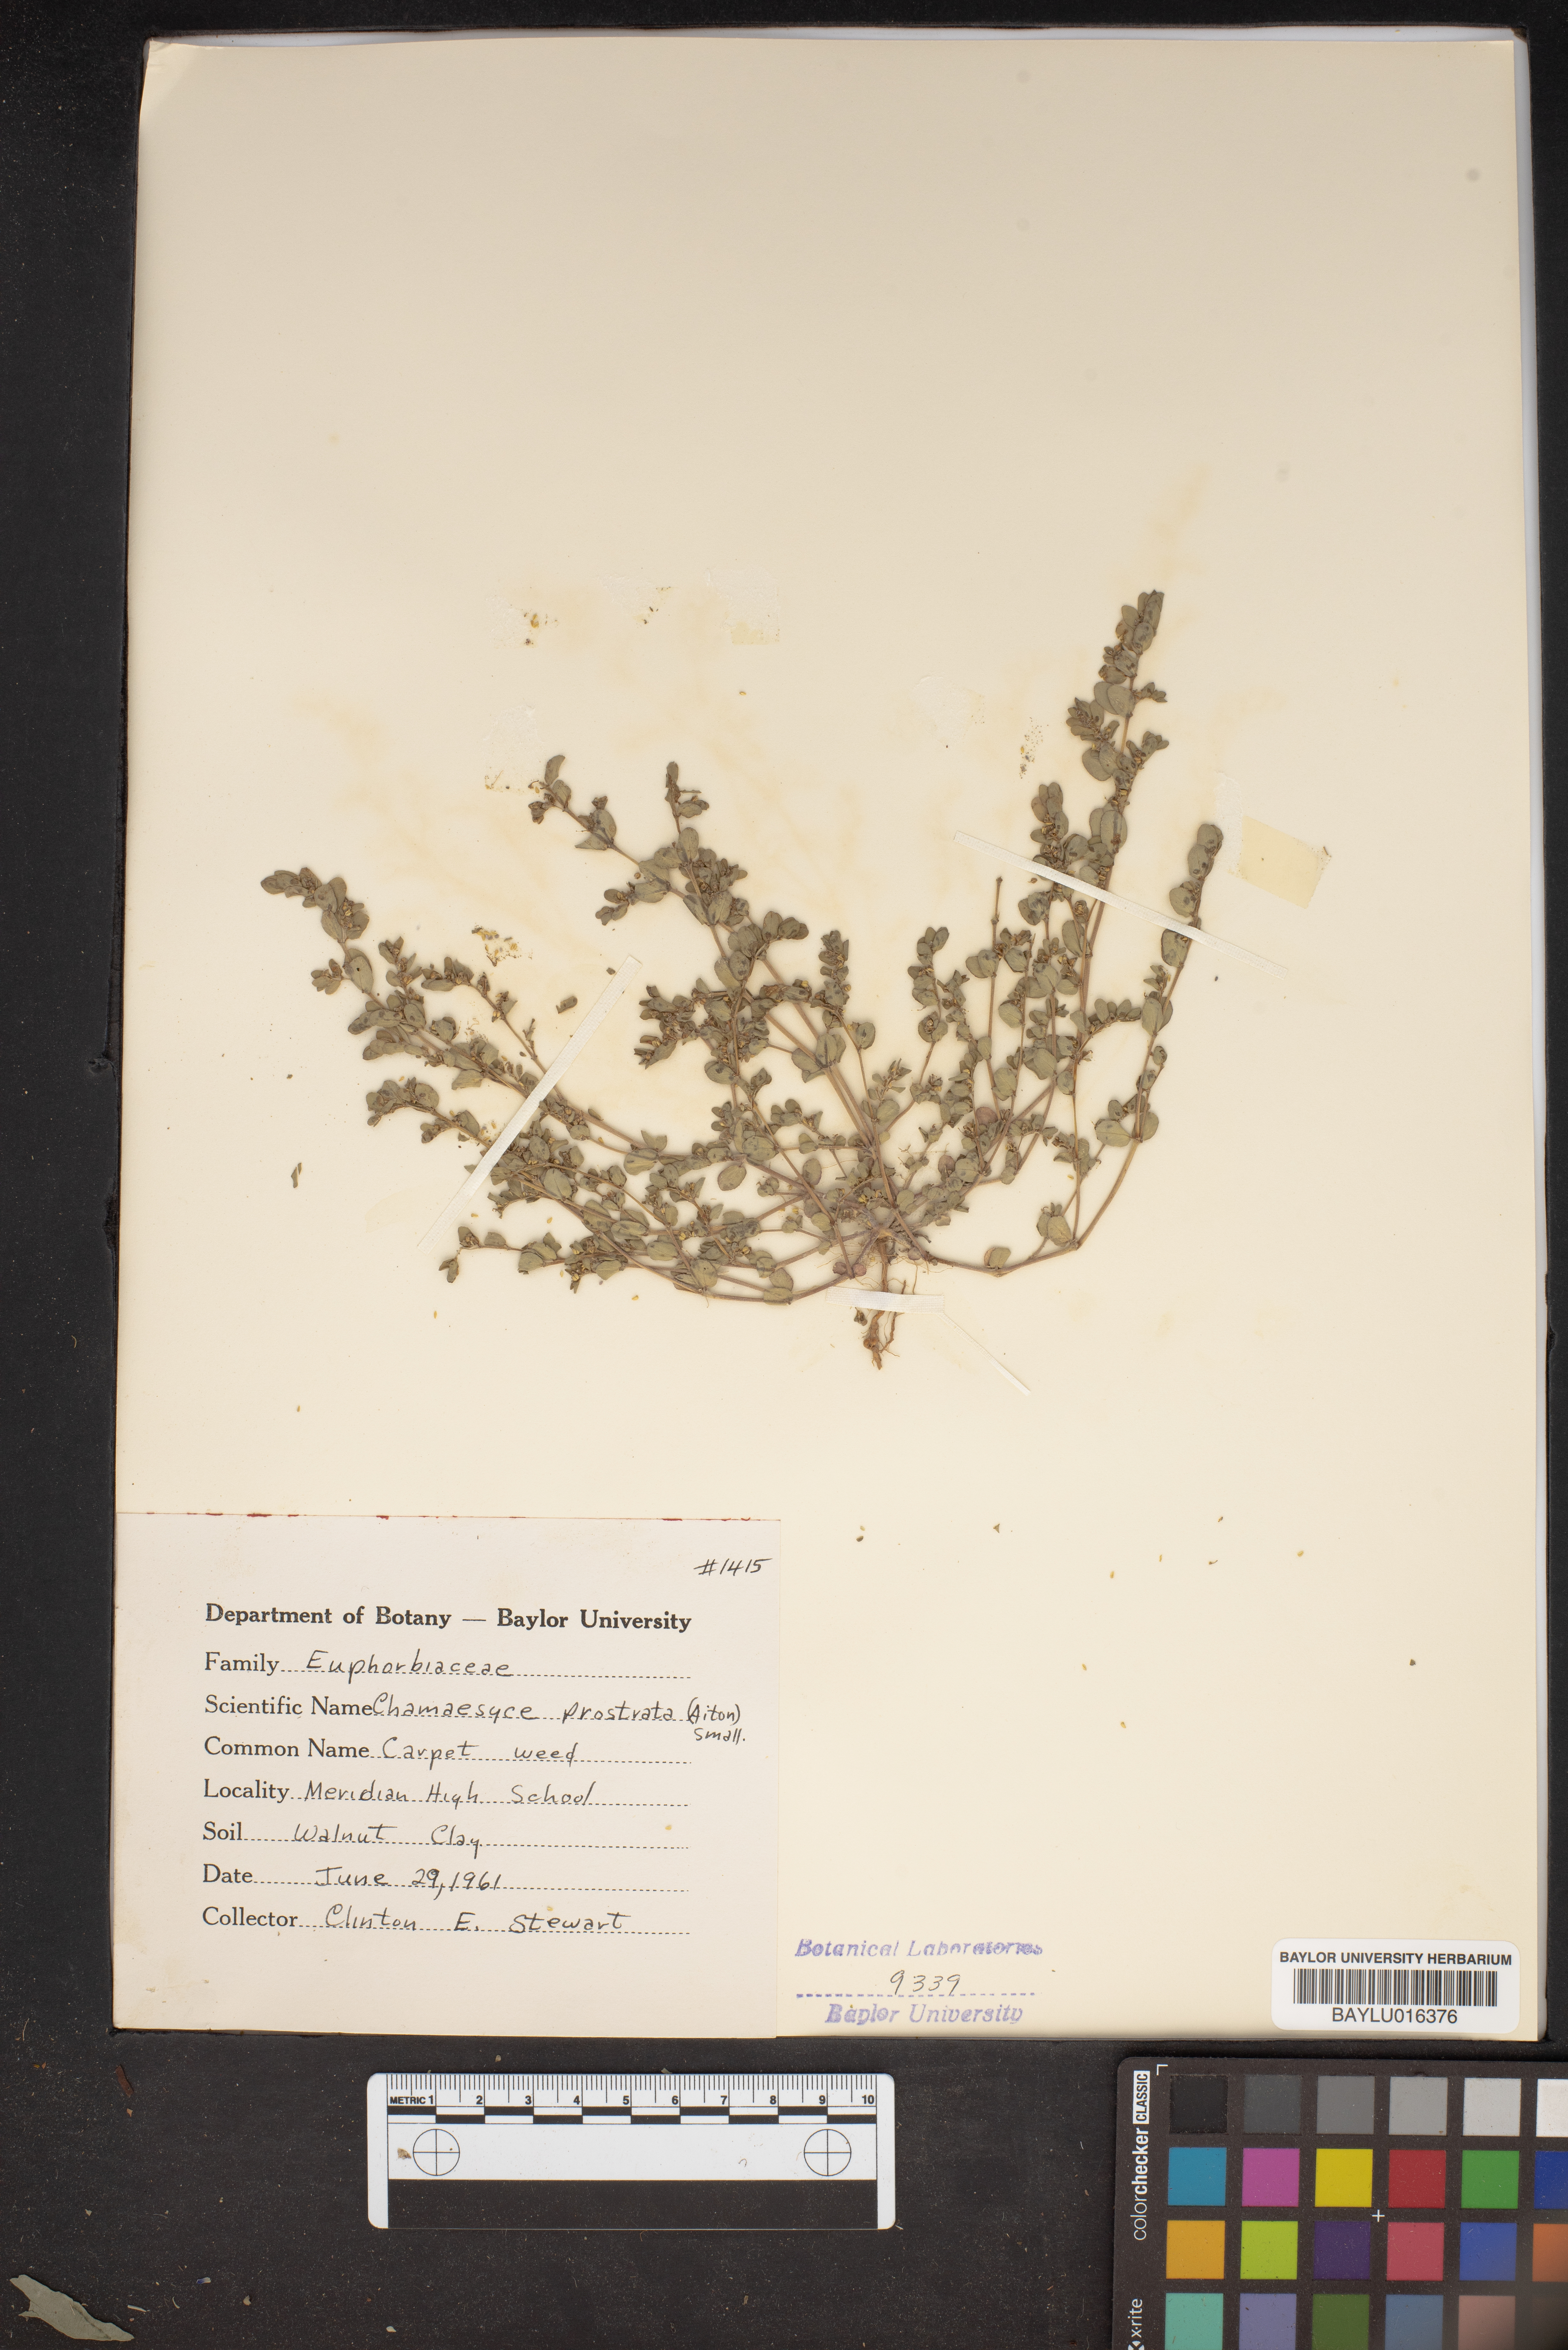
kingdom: Plantae
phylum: Tracheophyta
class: Magnoliopsida
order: Malpighiales
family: Euphorbiaceae
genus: Euphorbia
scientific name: Euphorbia prostrata
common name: Prostrate sandmat
